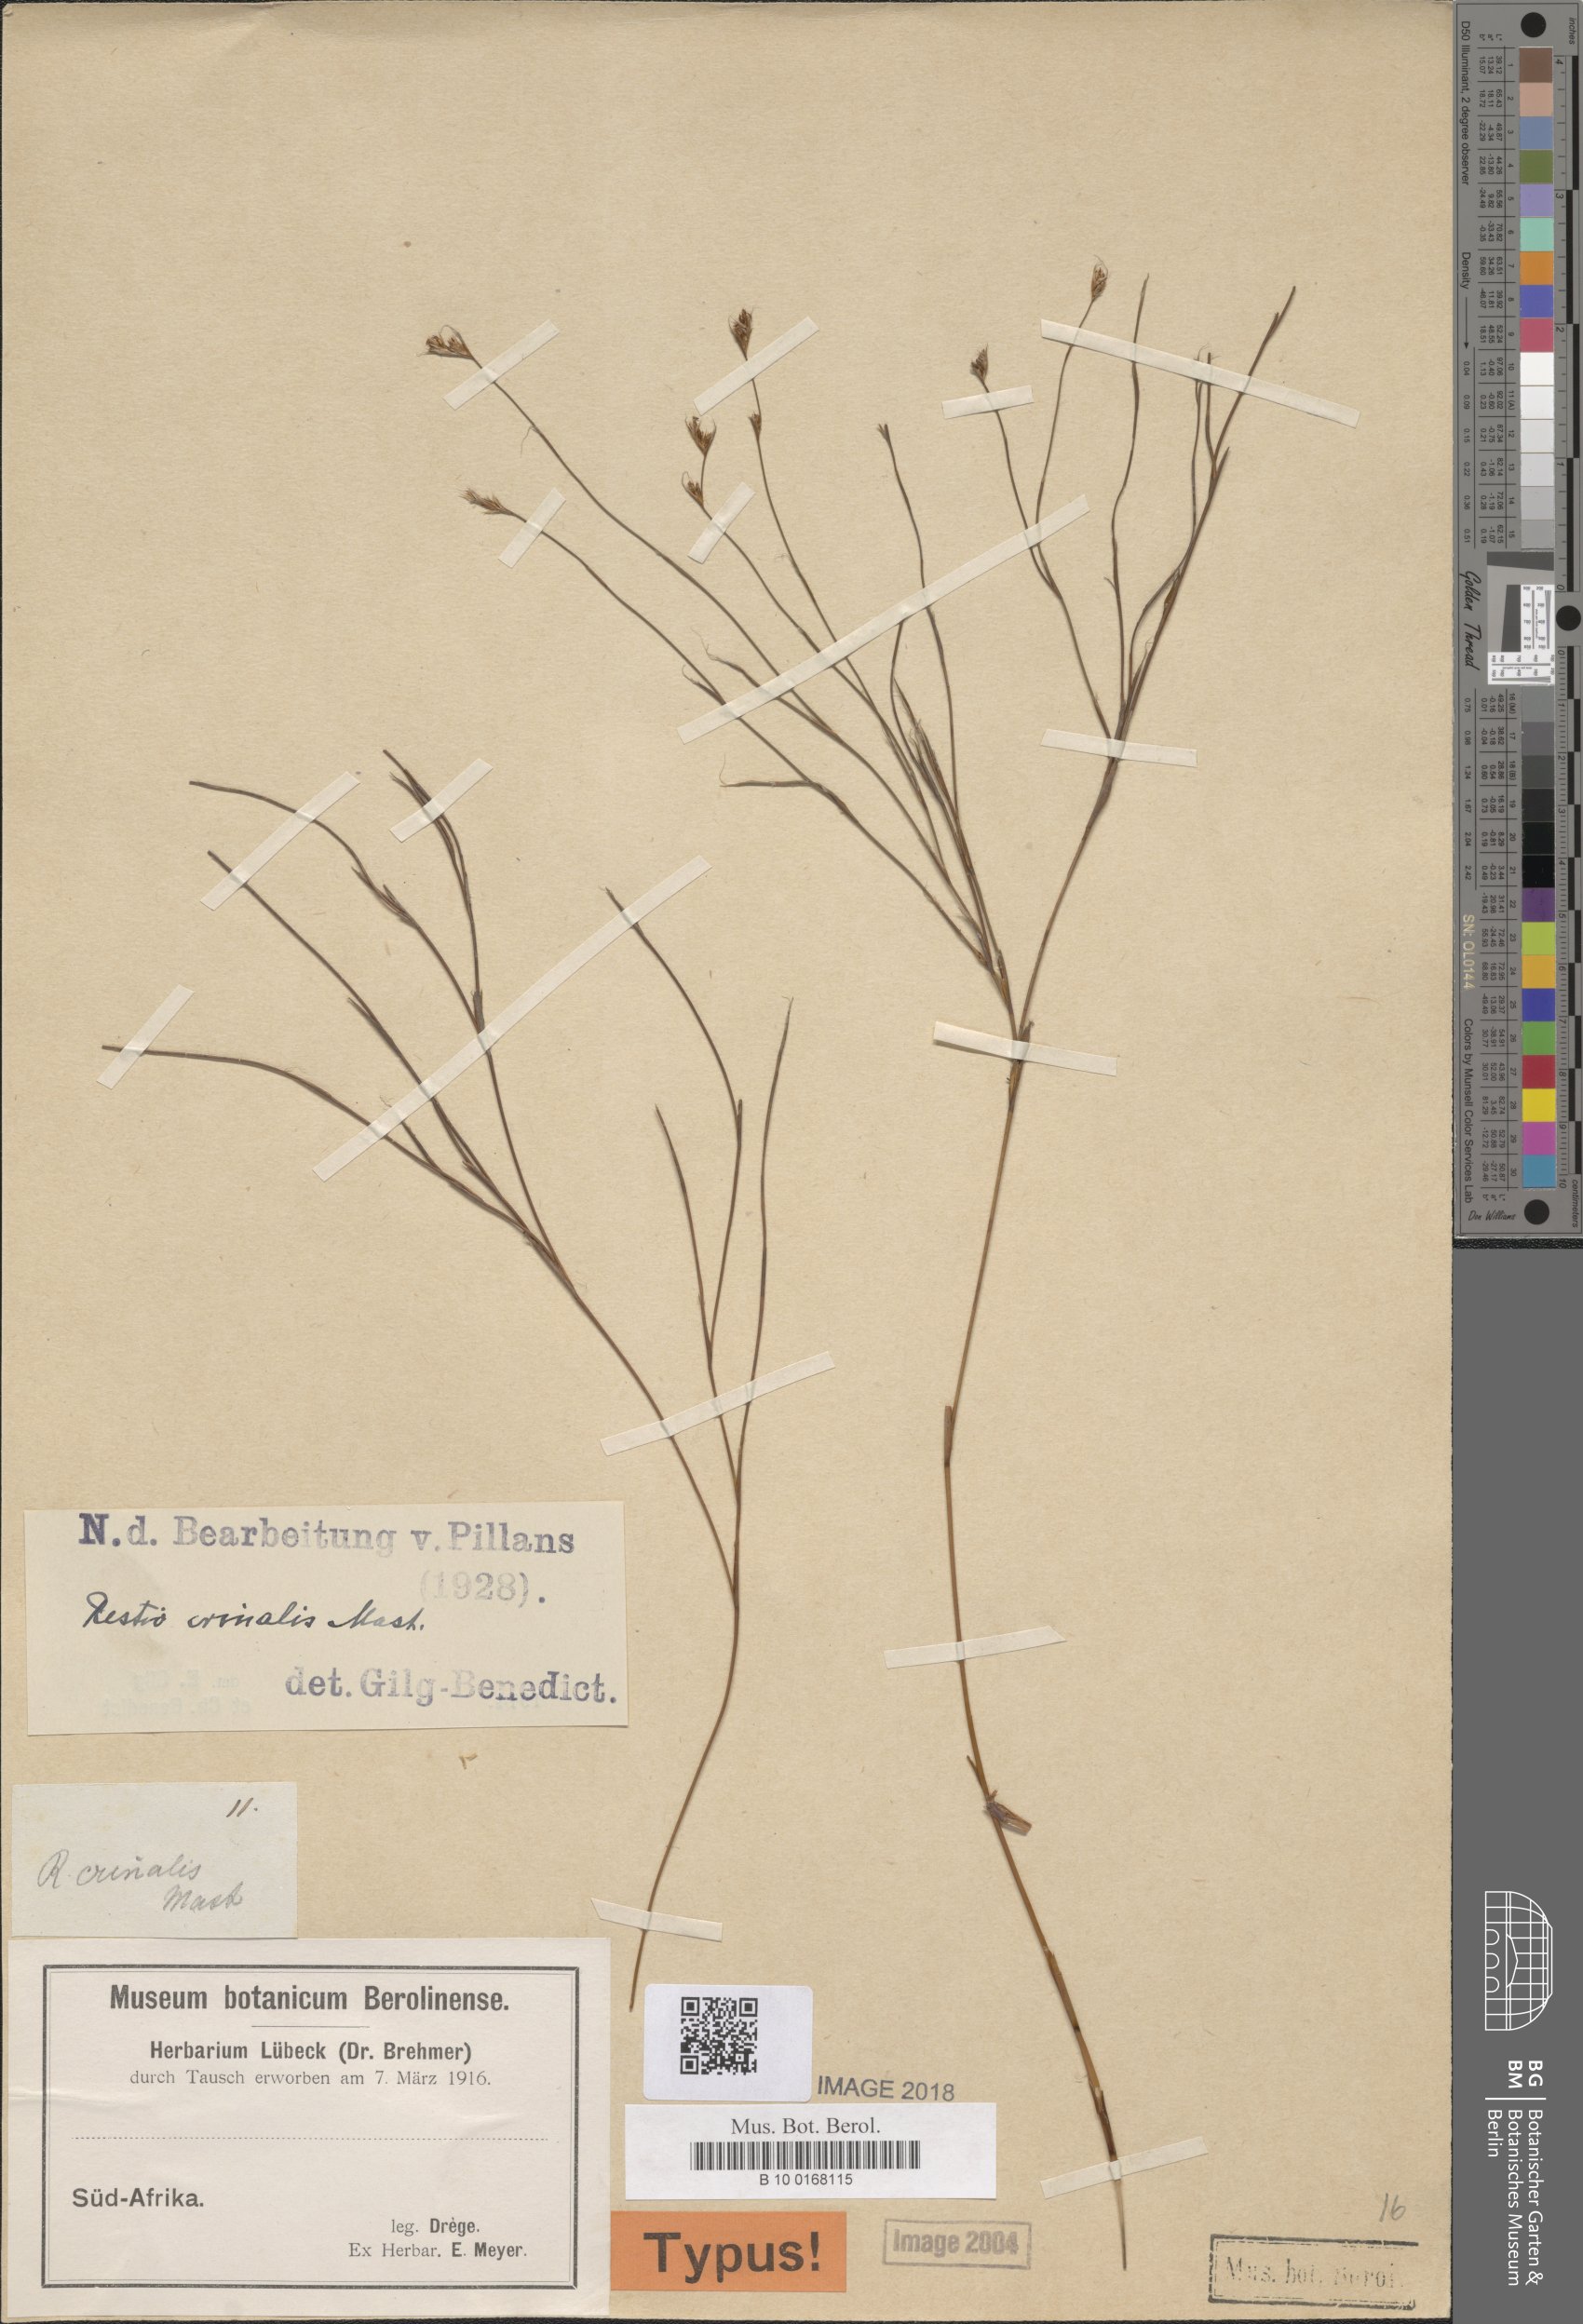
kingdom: Plantae
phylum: Tracheophyta
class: Liliopsida
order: Poales
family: Restionaceae
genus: Anthochortus
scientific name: Anthochortus crinalis
